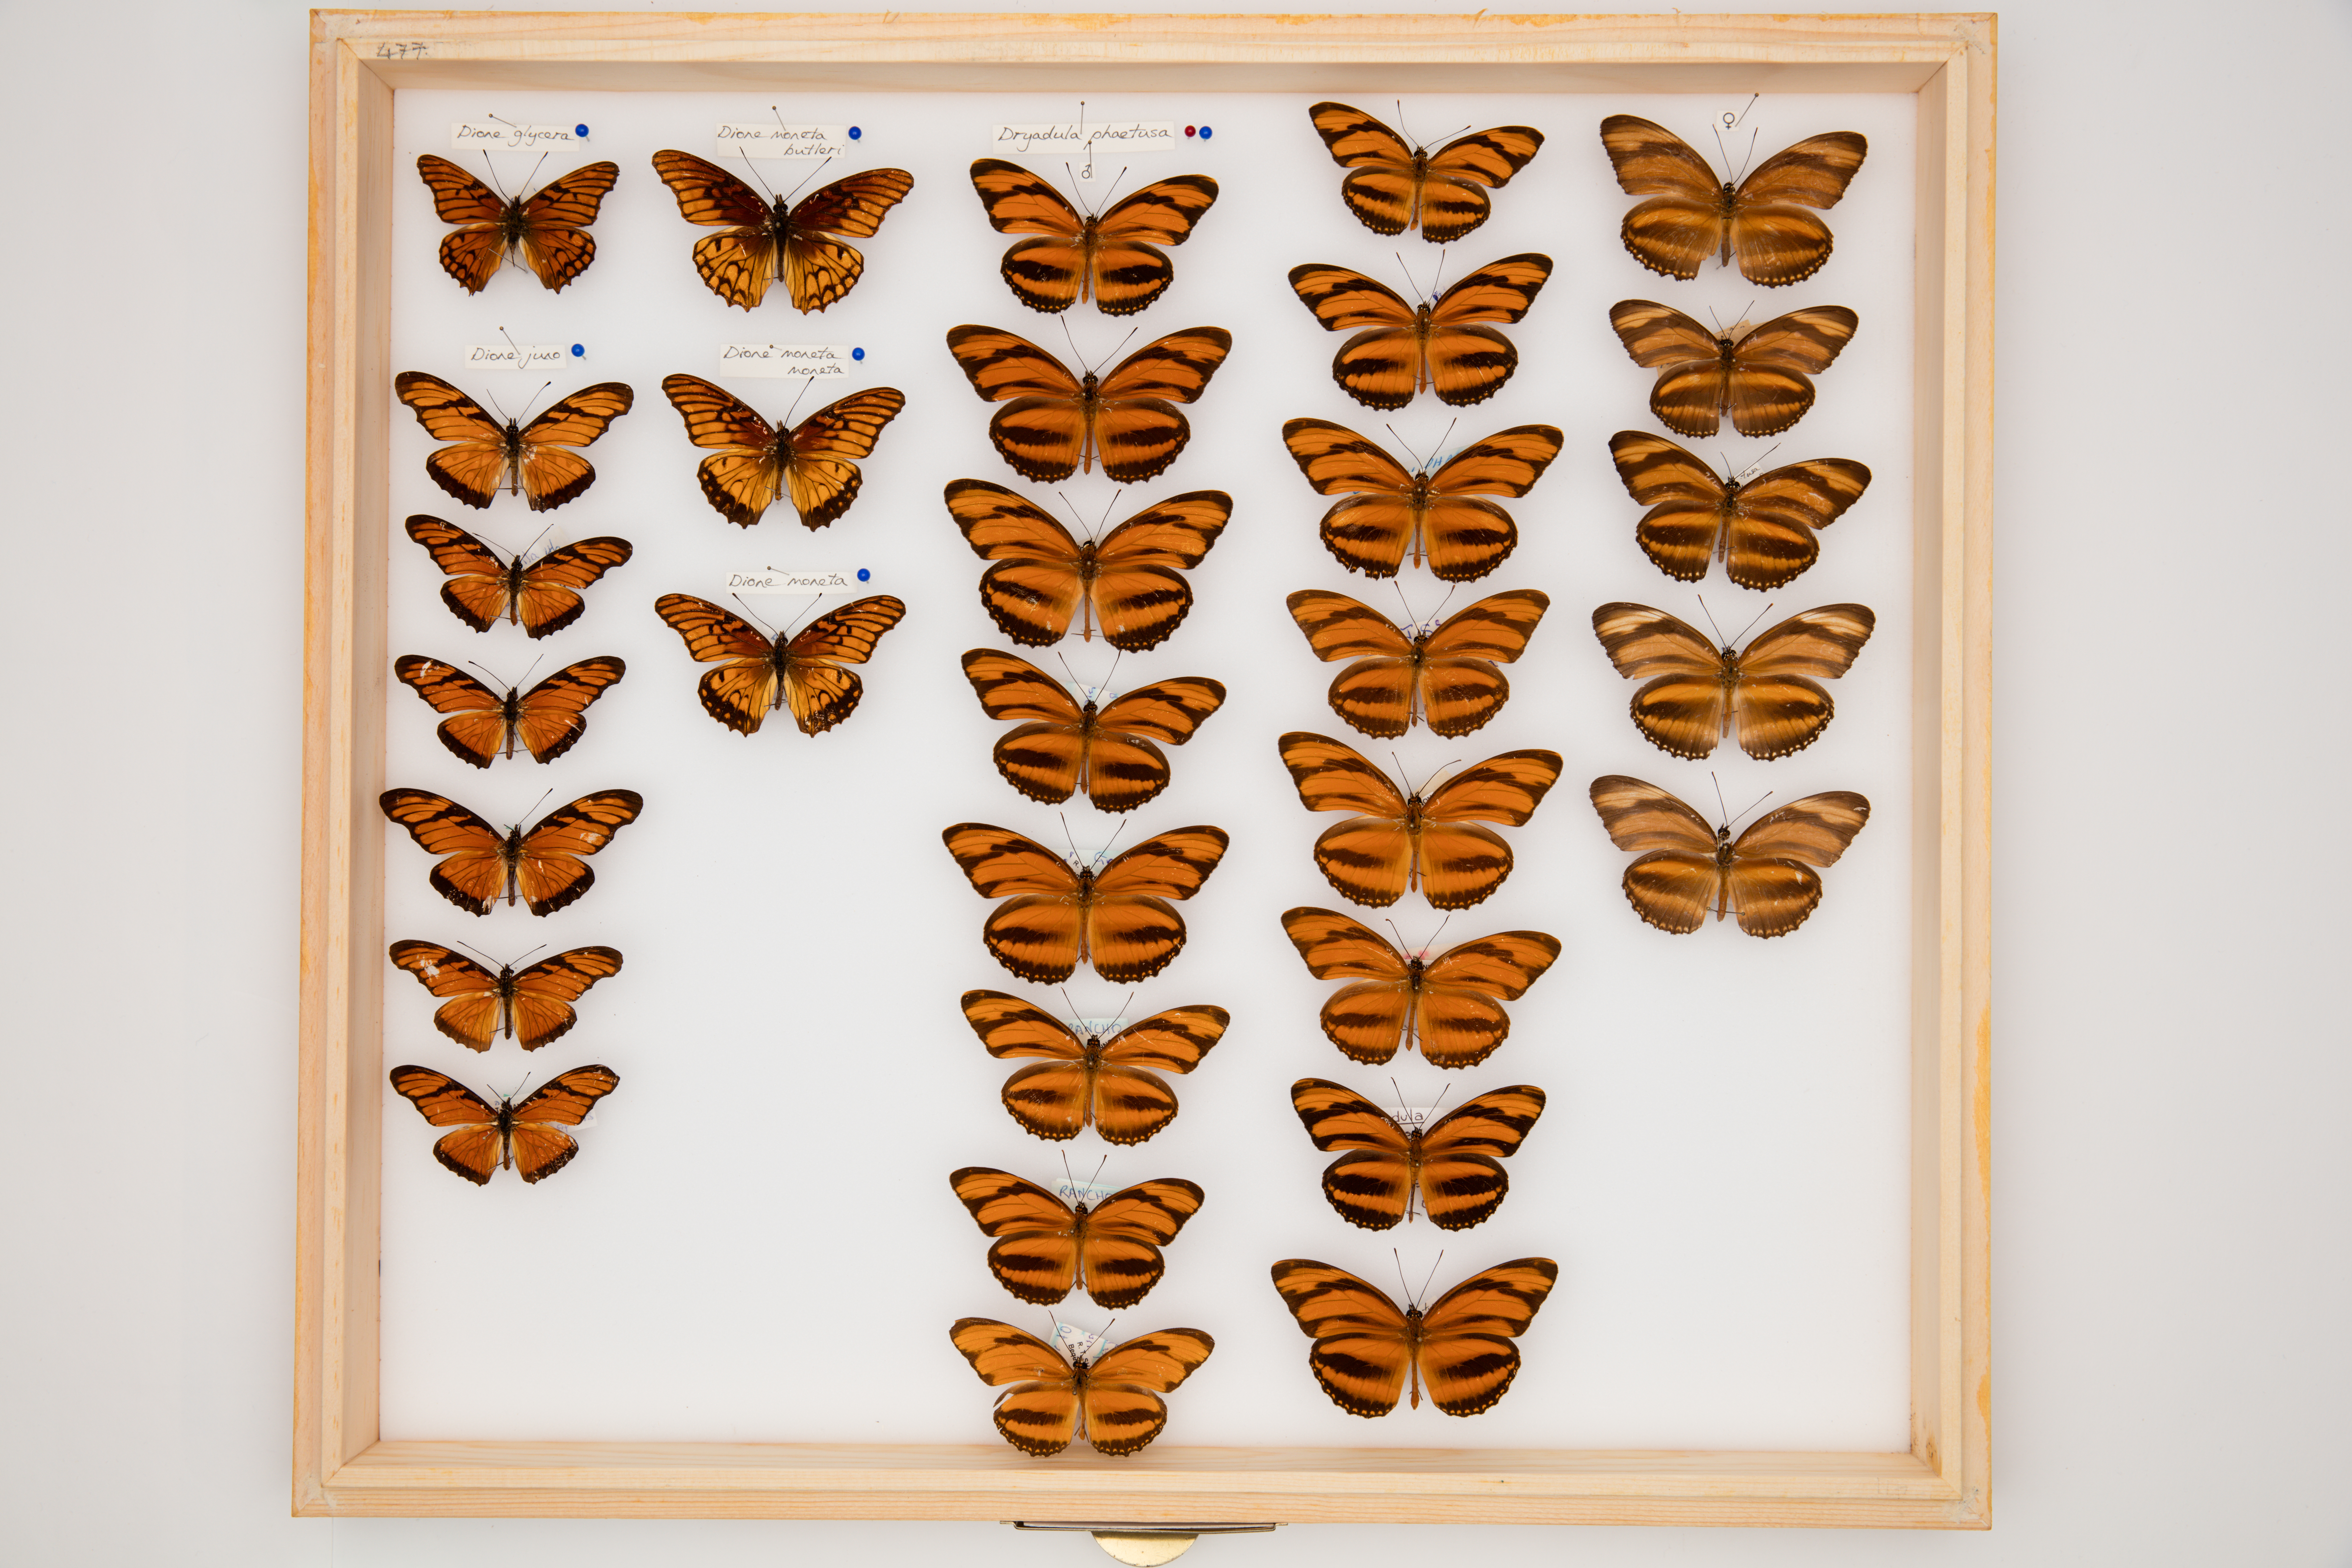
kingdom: Animalia
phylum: Arthropoda
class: Insecta
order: Lepidoptera
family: Nymphalidae
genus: Dryadula
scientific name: Dryadula phaetusa
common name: Banded orange heliconian
